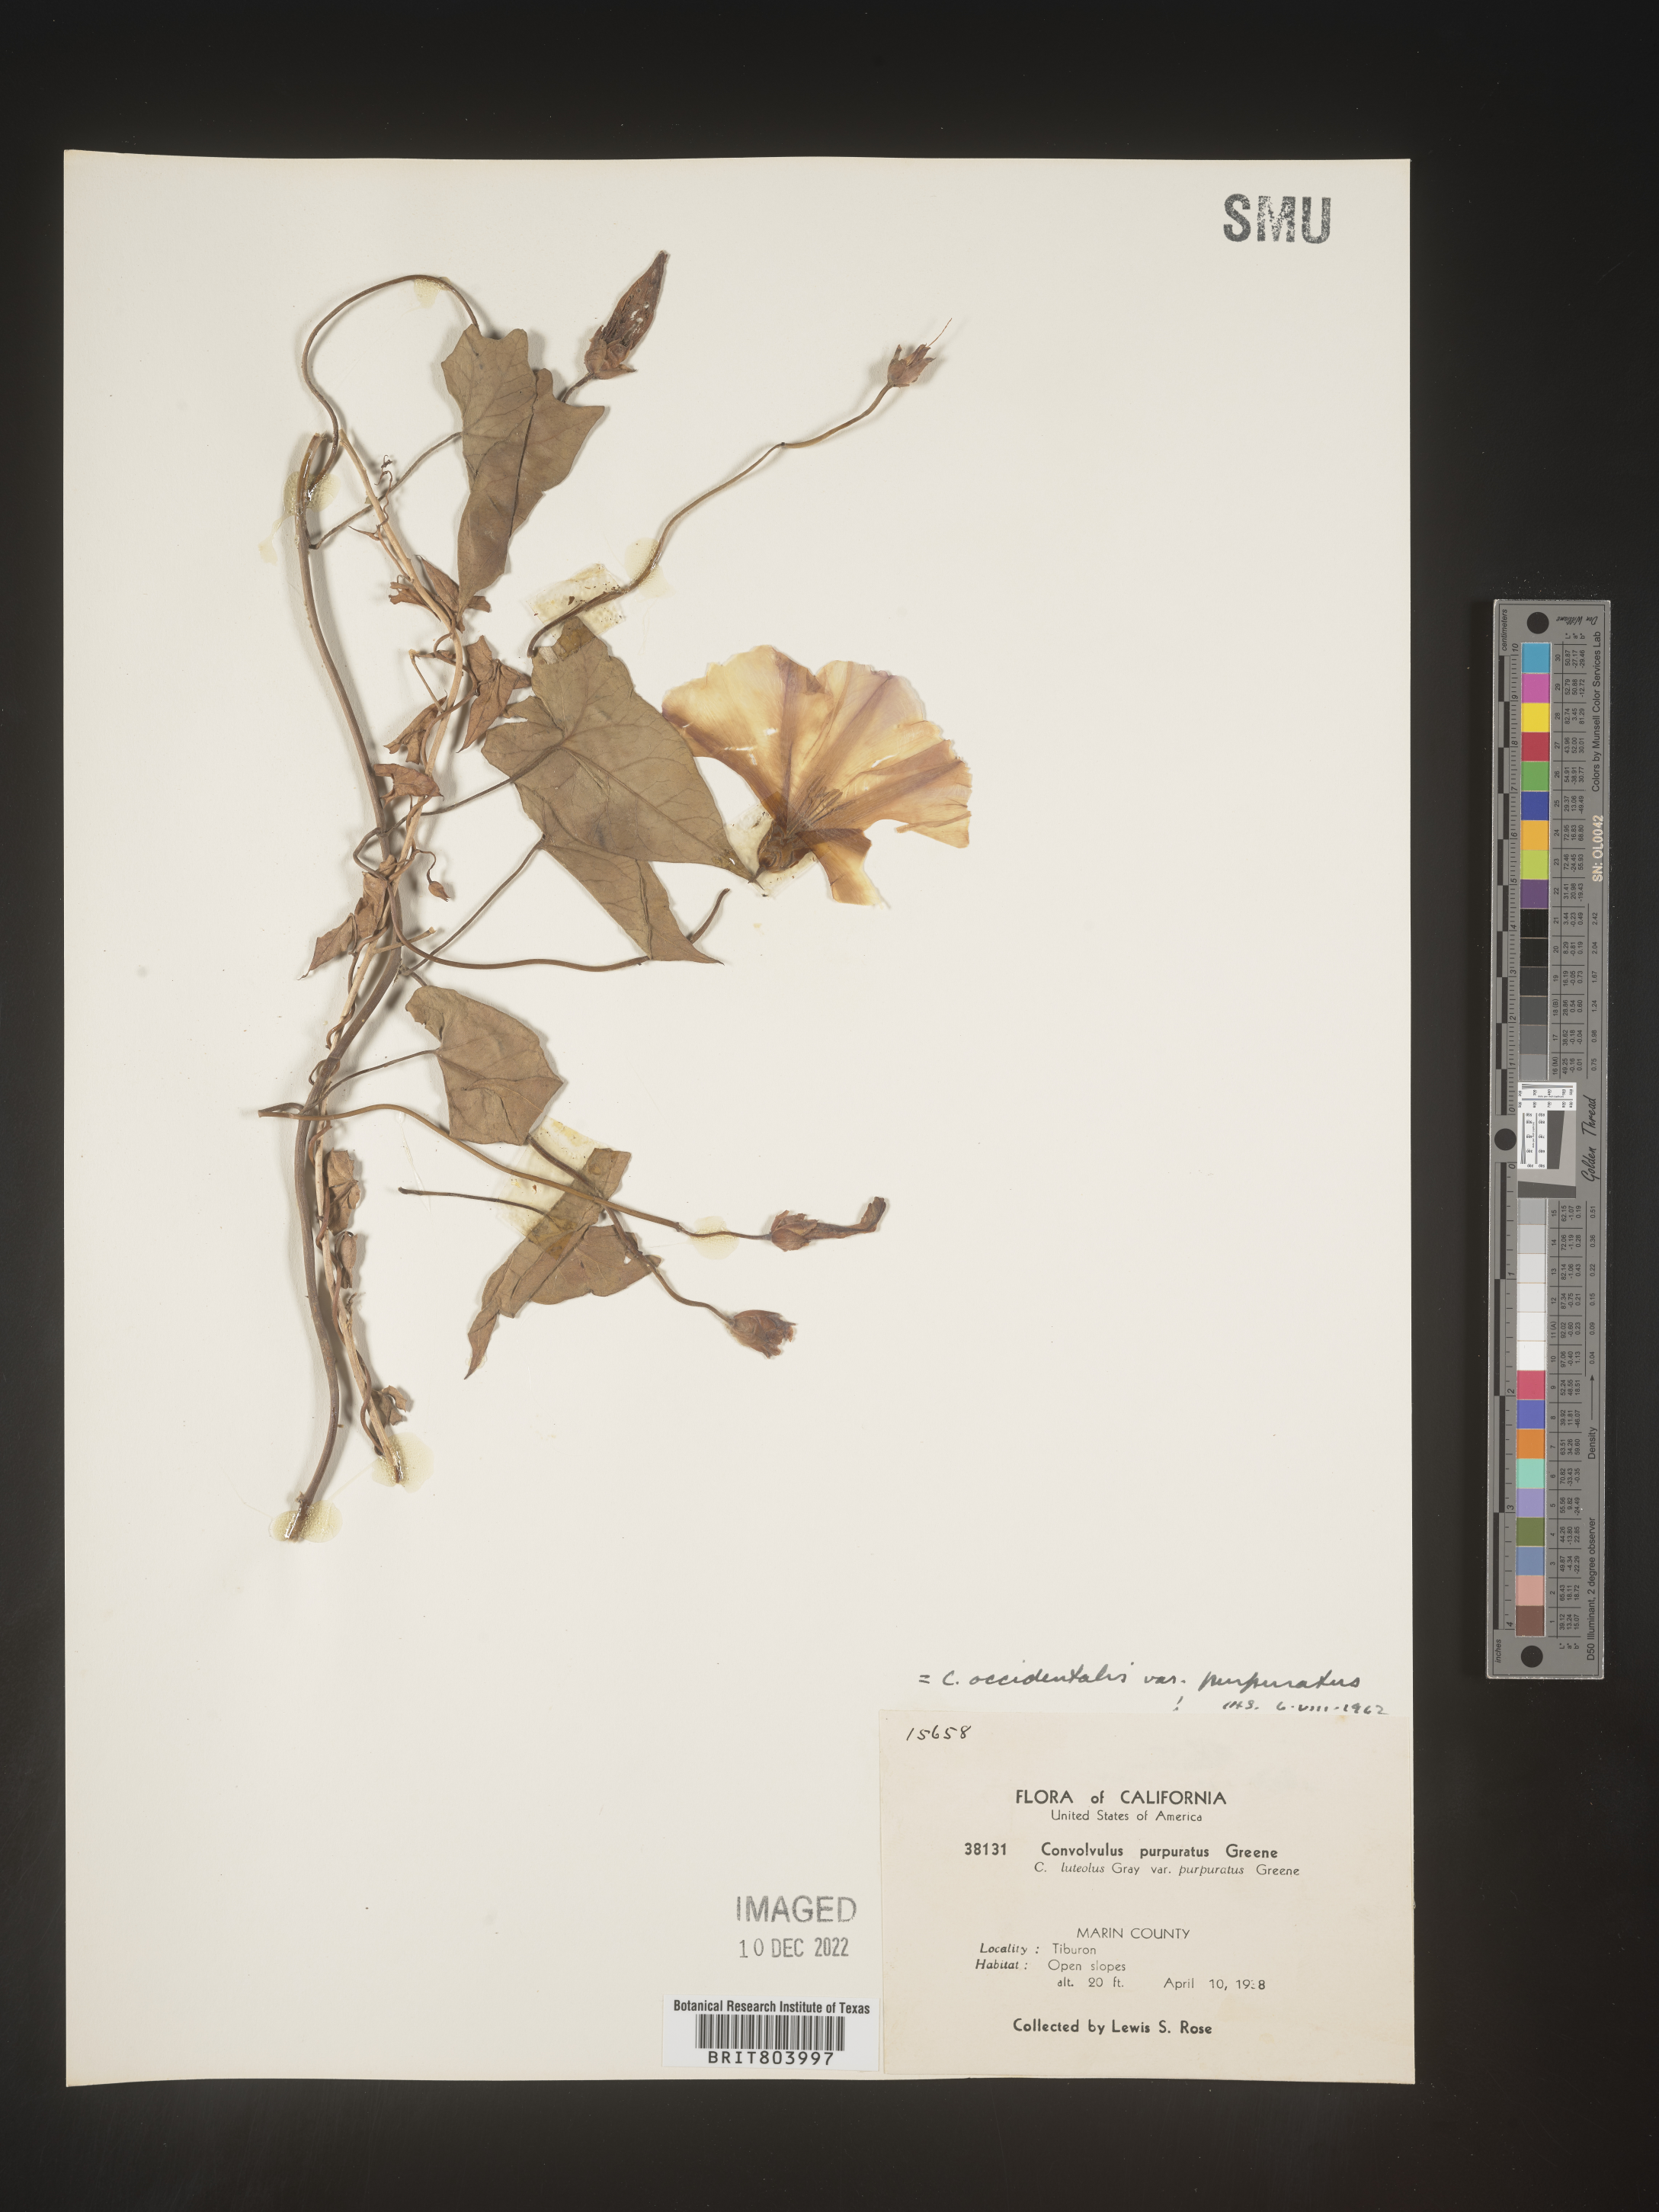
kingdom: Plantae
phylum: Tracheophyta
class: Magnoliopsida
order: Solanales
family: Convolvulaceae
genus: Calystegia
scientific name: Calystegia
